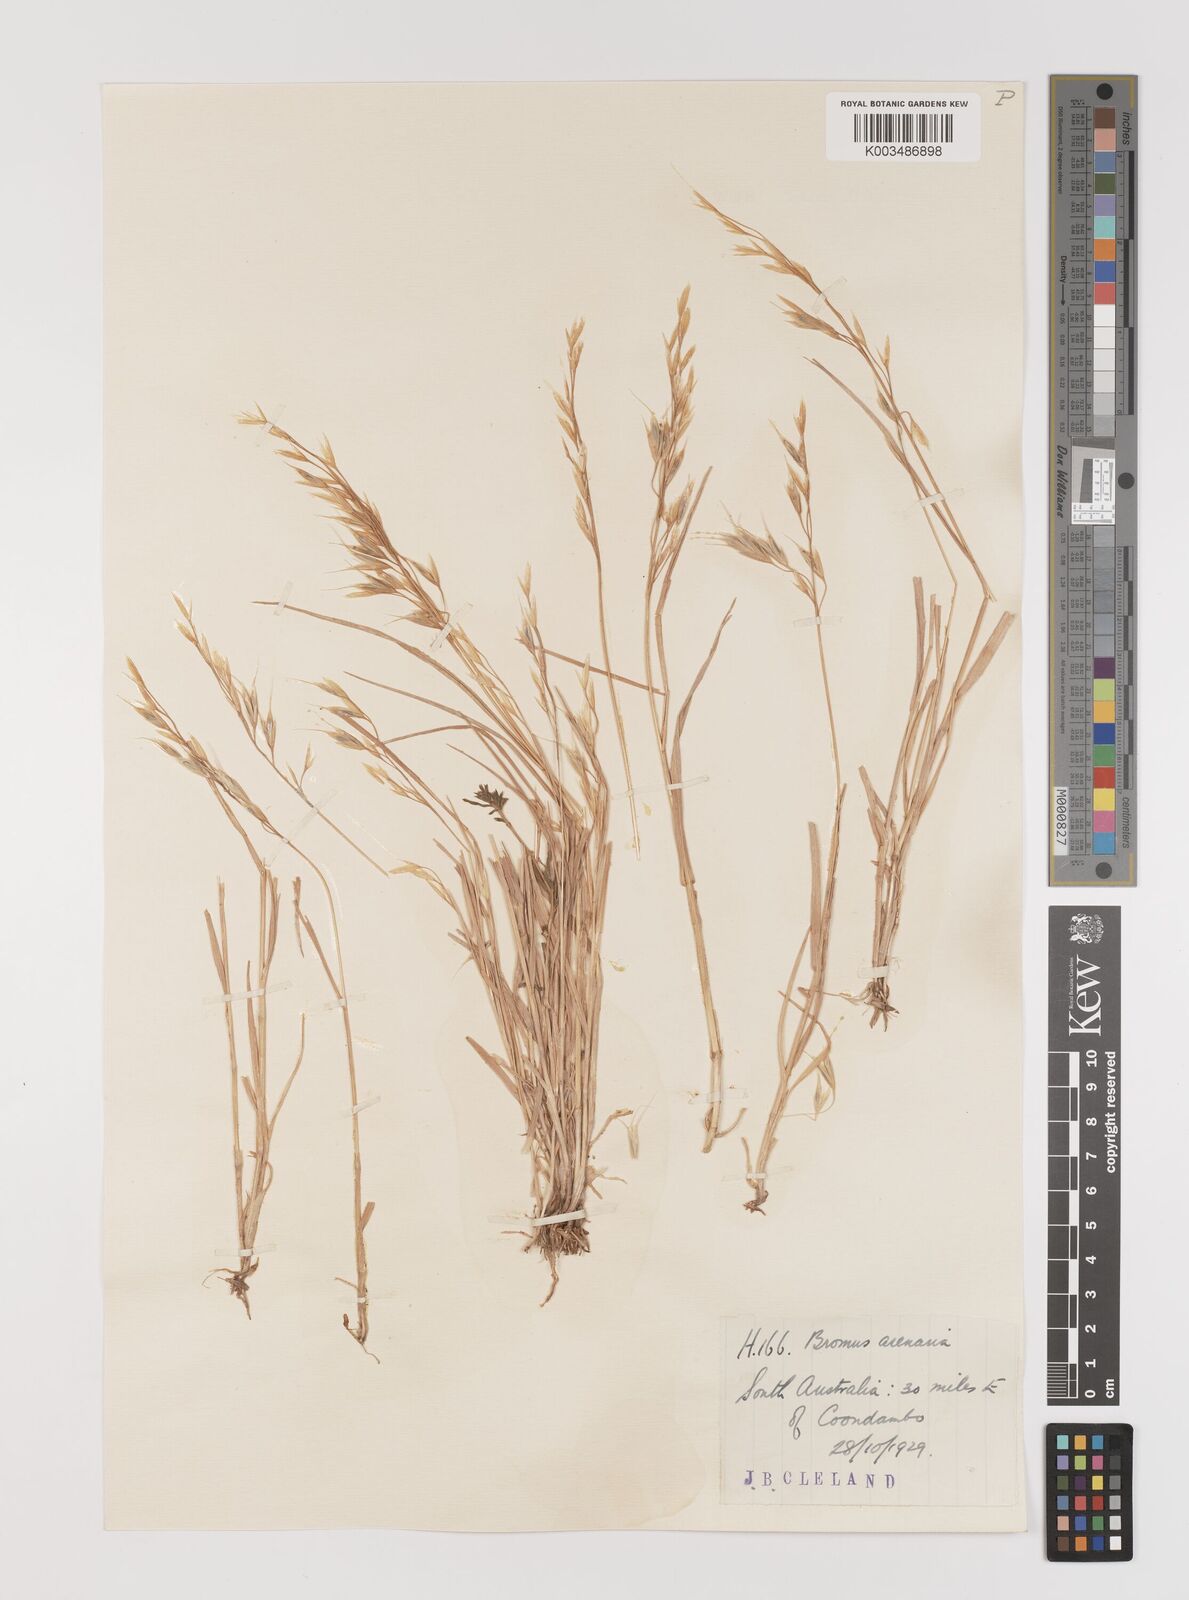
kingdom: Plantae
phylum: Tracheophyta
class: Liliopsida
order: Poales
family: Poaceae
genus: Bromus
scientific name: Bromus arenarius
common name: Australian brome
